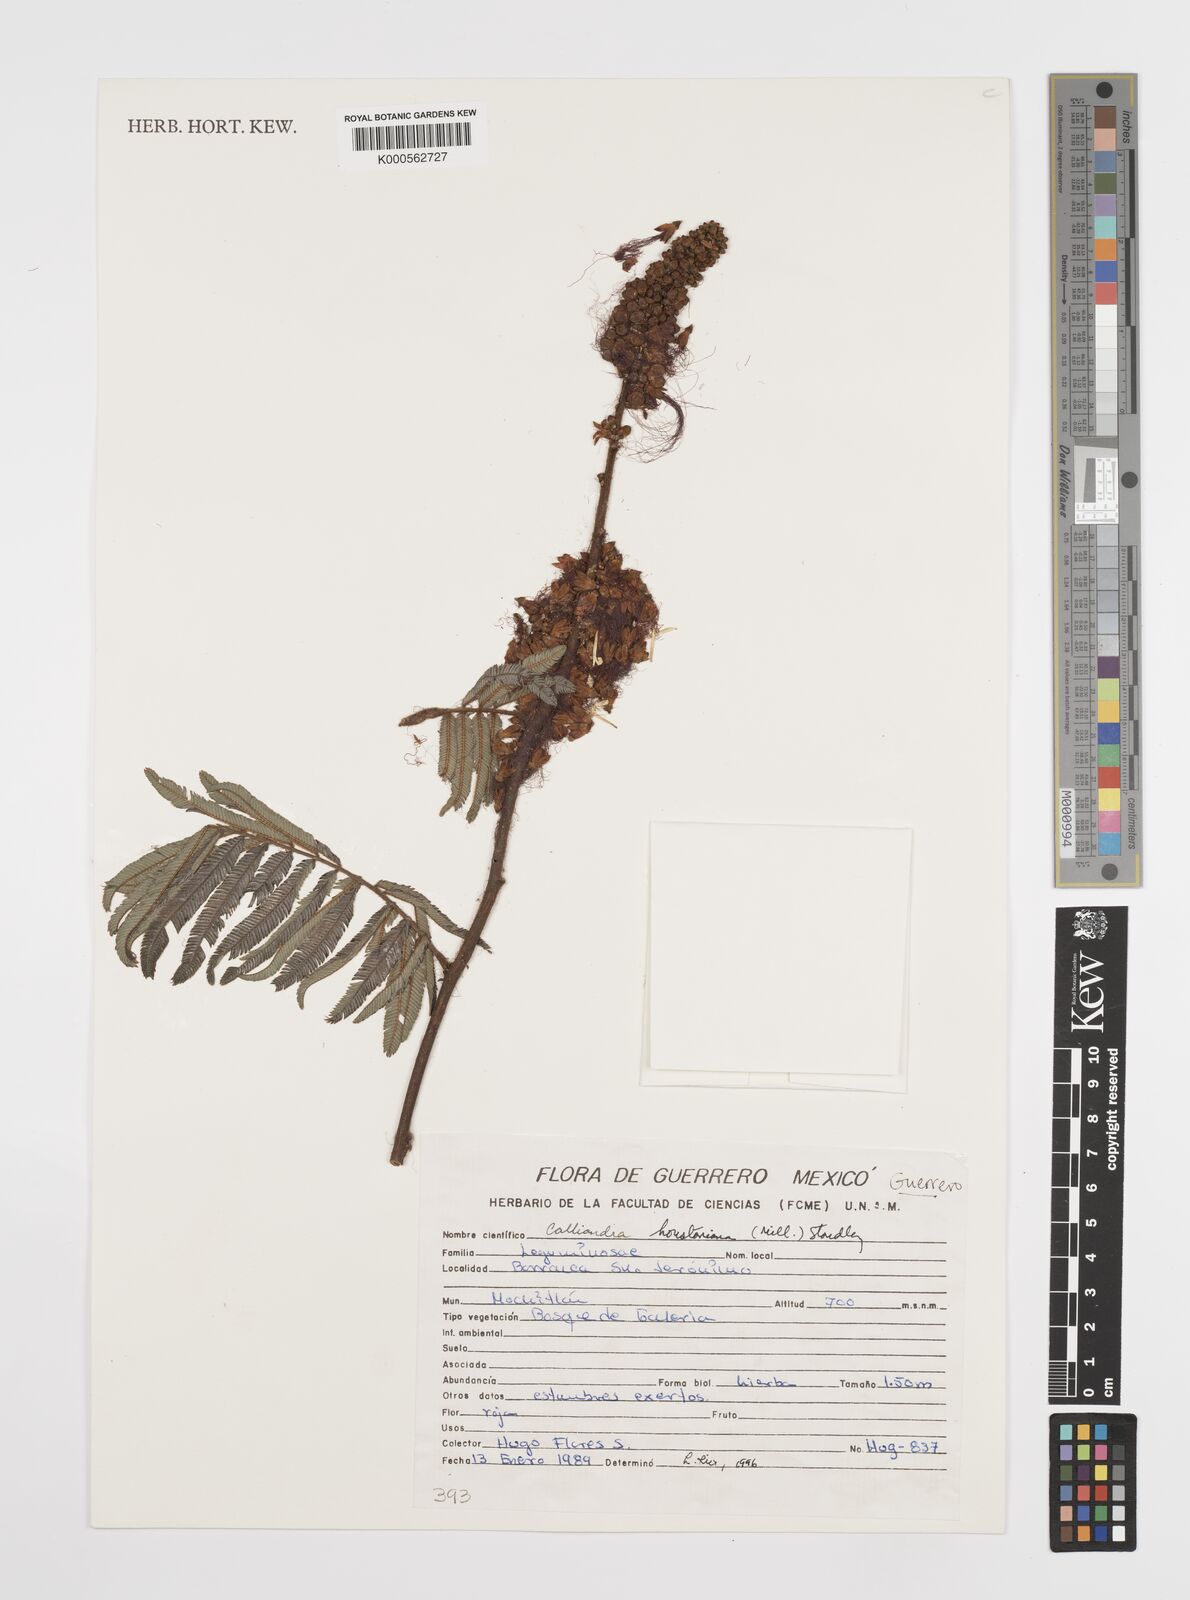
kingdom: Plantae
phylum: Tracheophyta
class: Magnoliopsida
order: Fabales
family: Fabaceae
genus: Calliandra
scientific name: Calliandra houstoniana
